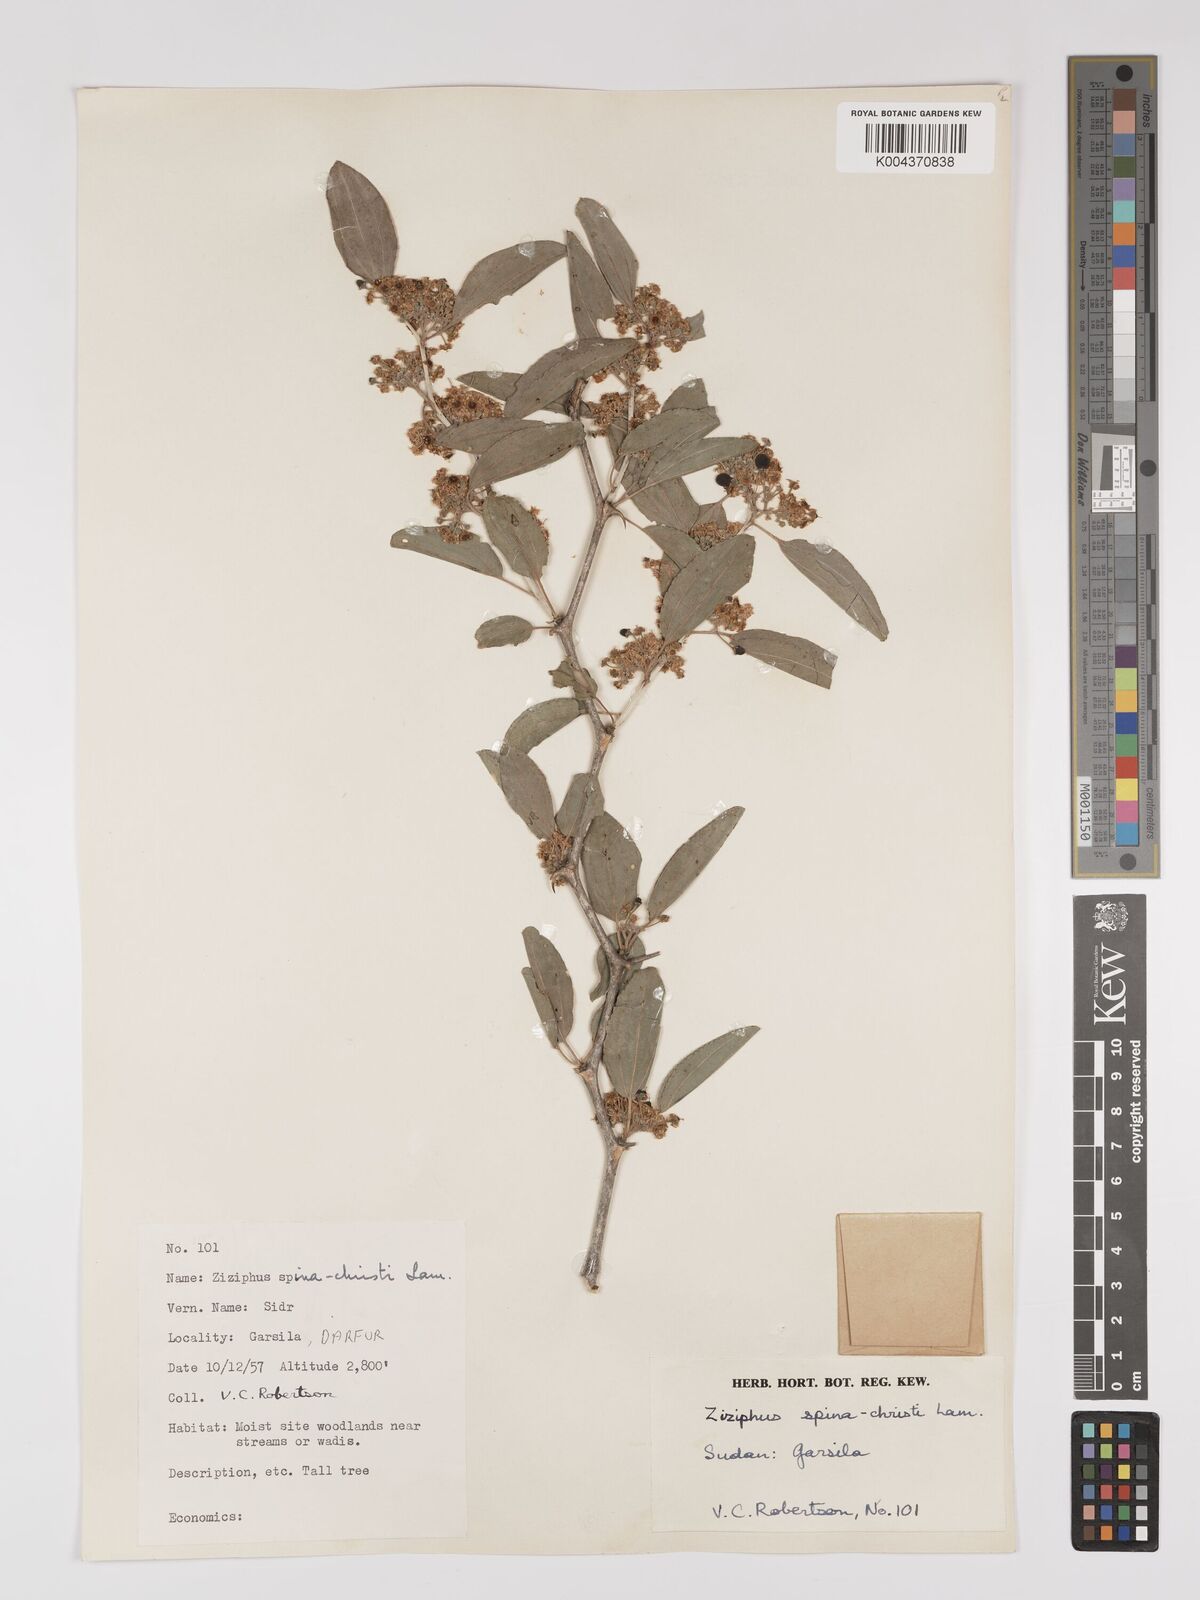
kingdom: Plantae
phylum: Tracheophyta
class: Magnoliopsida
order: Rosales
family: Rhamnaceae
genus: Ziziphus
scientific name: Ziziphus spina-christi
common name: Syrian christ-thorn
